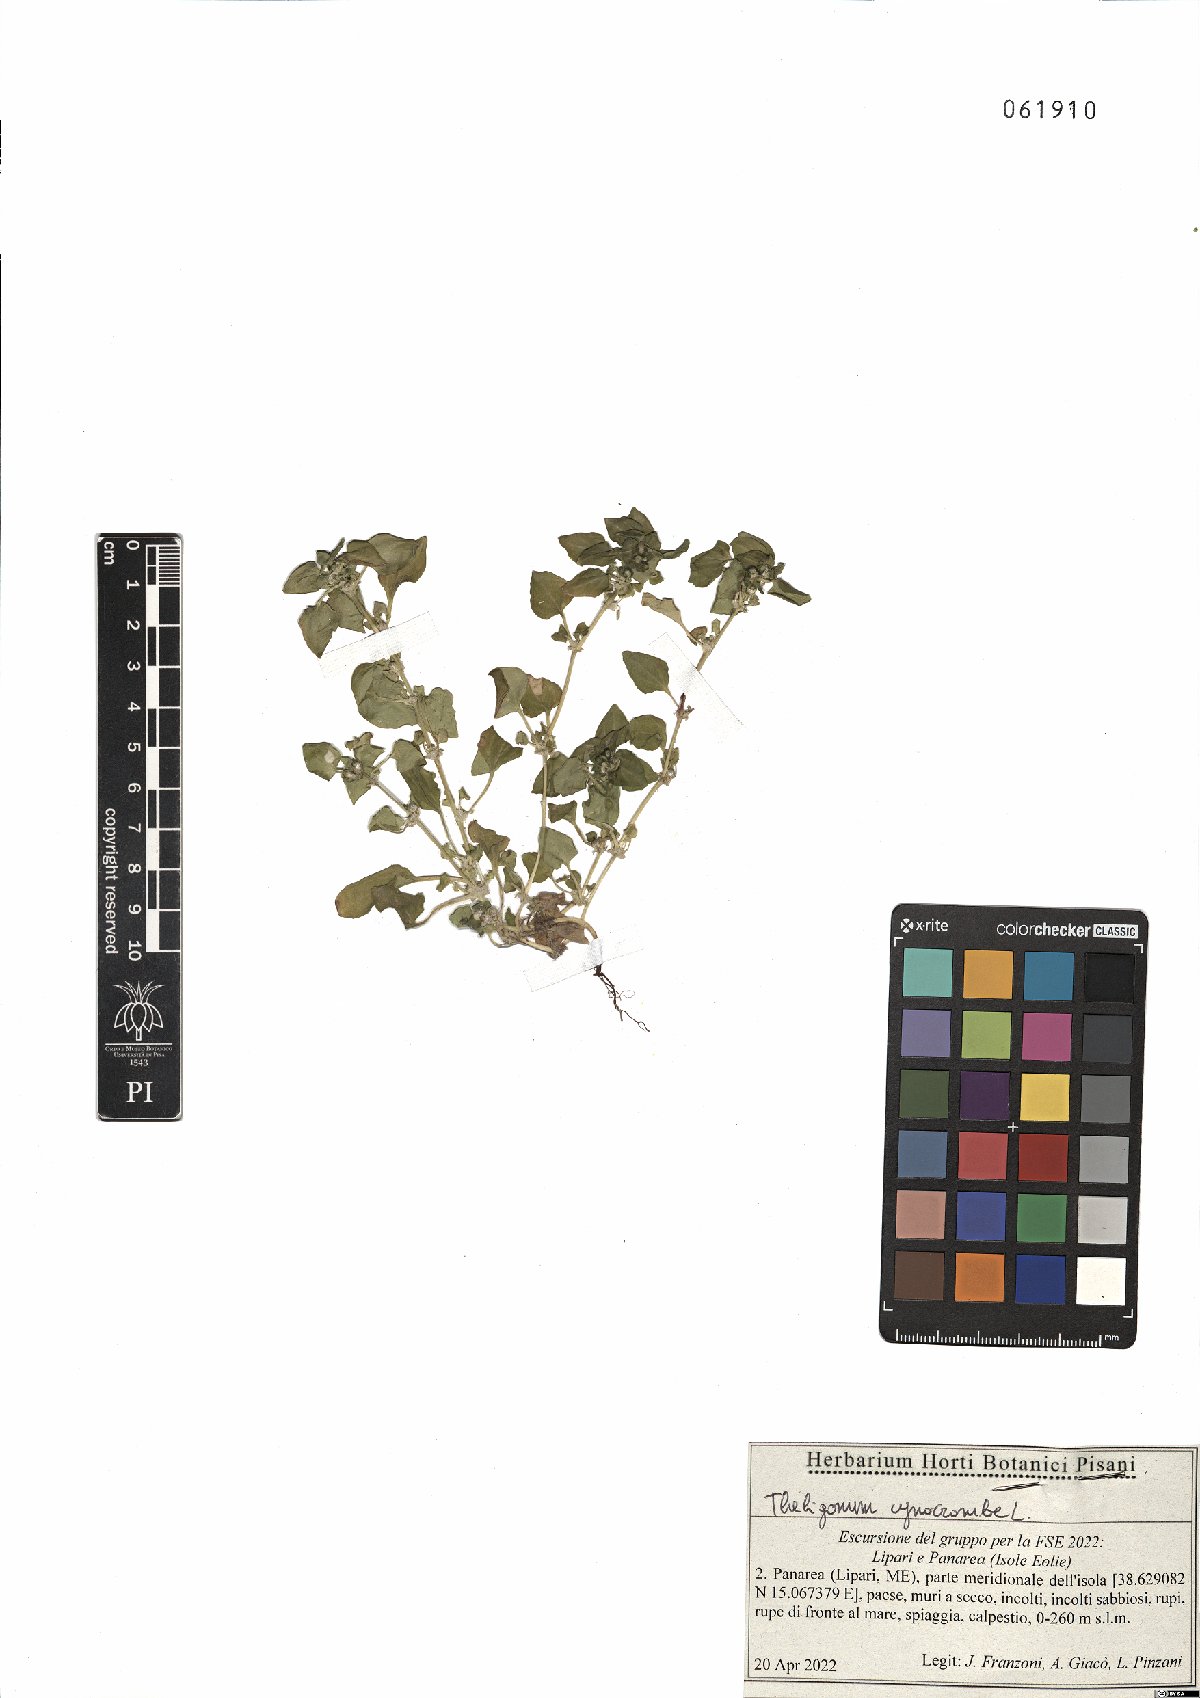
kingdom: Plantae
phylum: Tracheophyta
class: Magnoliopsida
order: Gentianales
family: Rubiaceae
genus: Theligonum
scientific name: Theligonum cynocrambe
